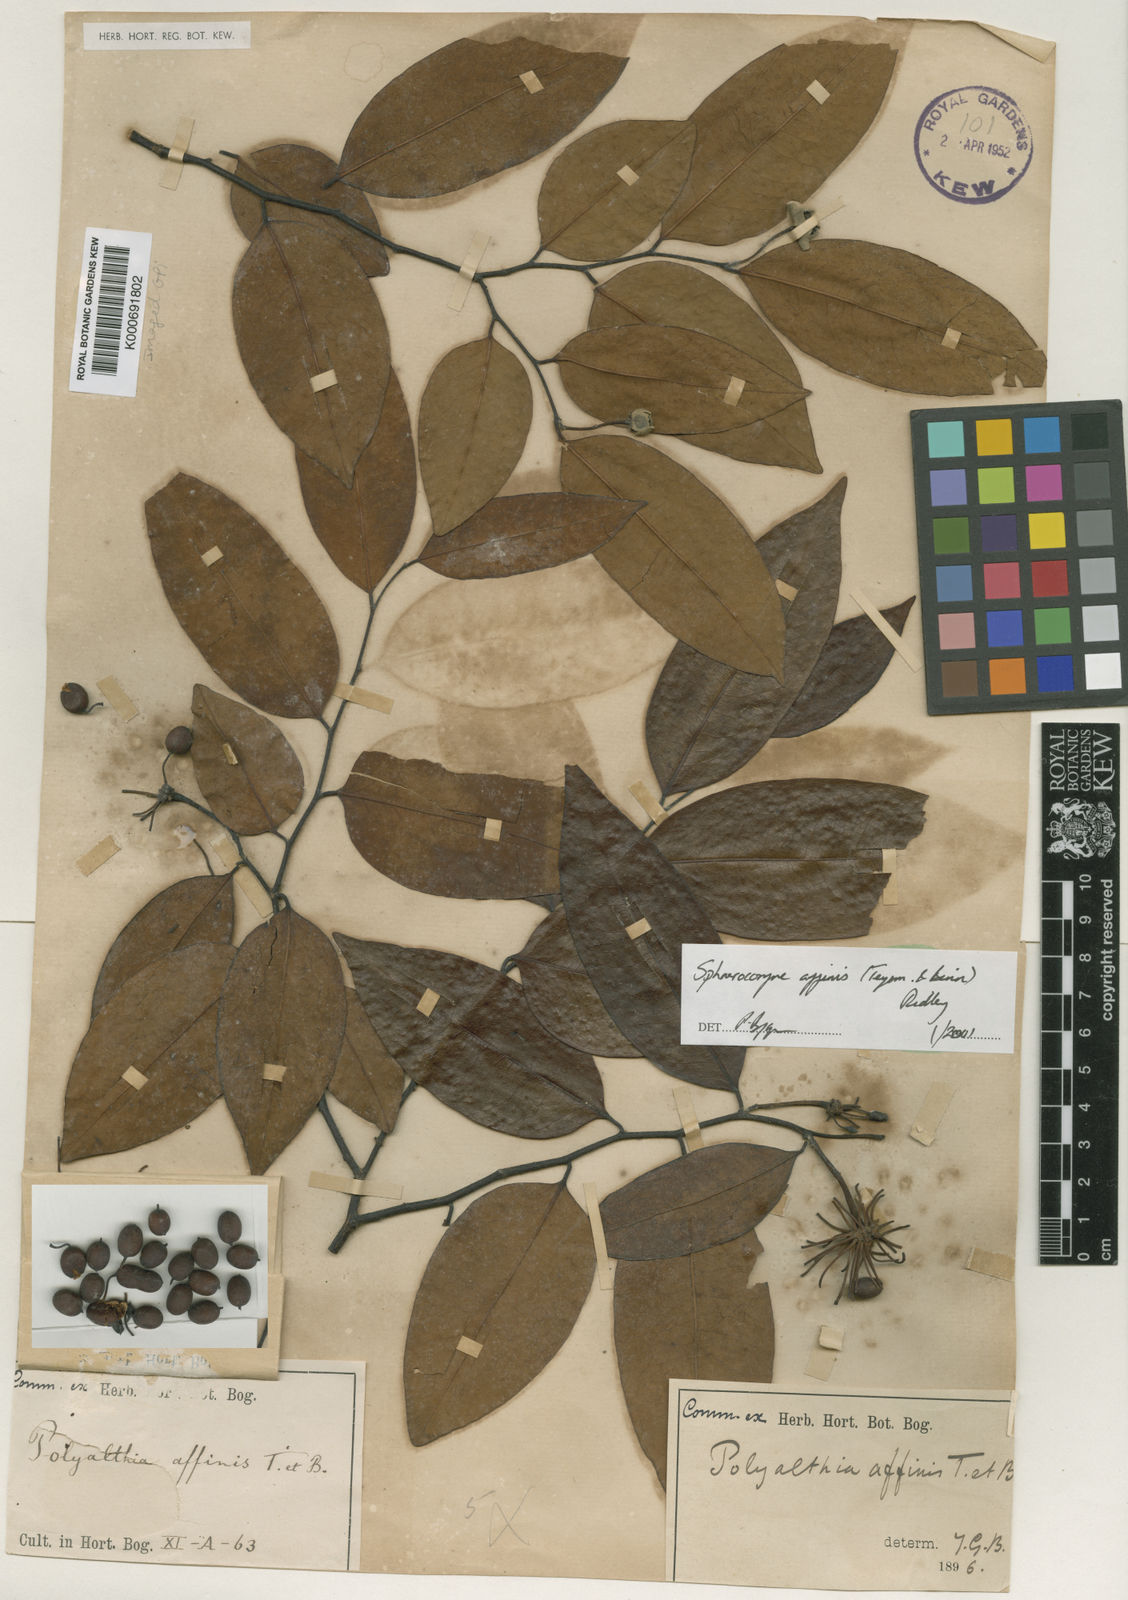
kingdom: Plantae
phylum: Tracheophyta
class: Magnoliopsida
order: Magnoliales
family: Annonaceae
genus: Sphaerocoryne
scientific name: Sphaerocoryne affinis
